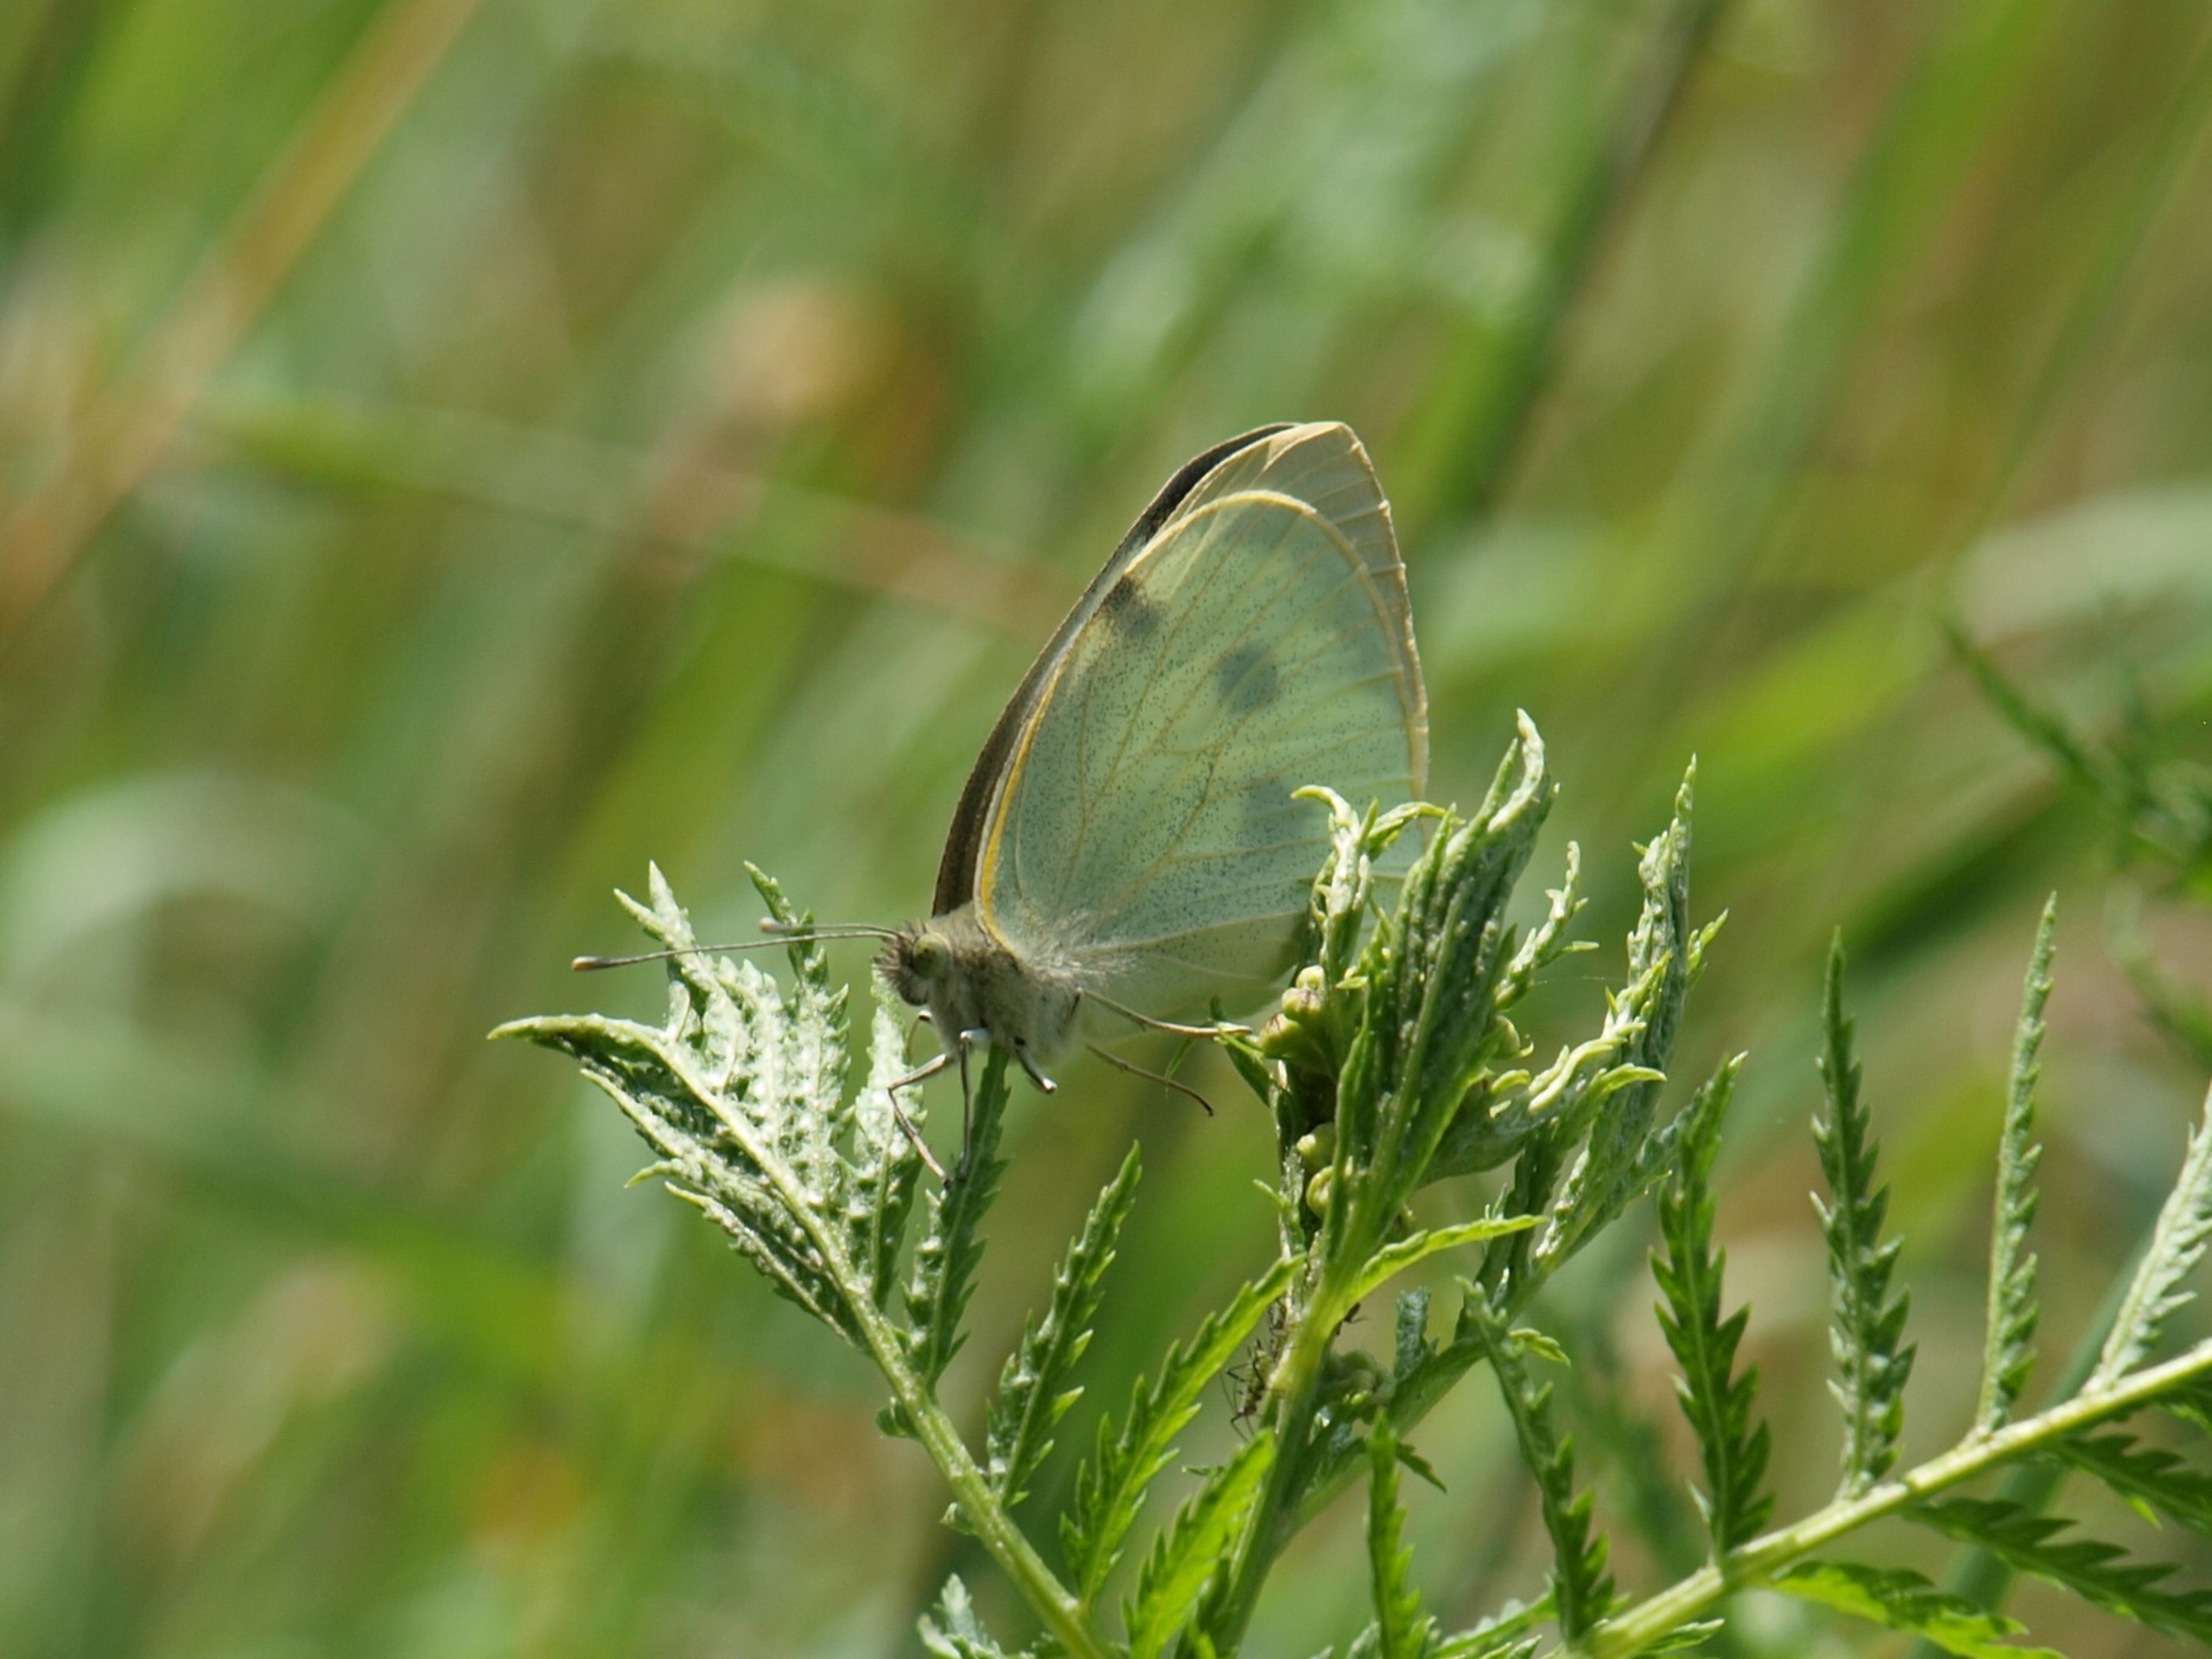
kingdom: Animalia
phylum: Arthropoda
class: Insecta
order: Lepidoptera
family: Pieridae
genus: Pieris
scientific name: Pieris brassicae
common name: Stor kålsommerfugl
